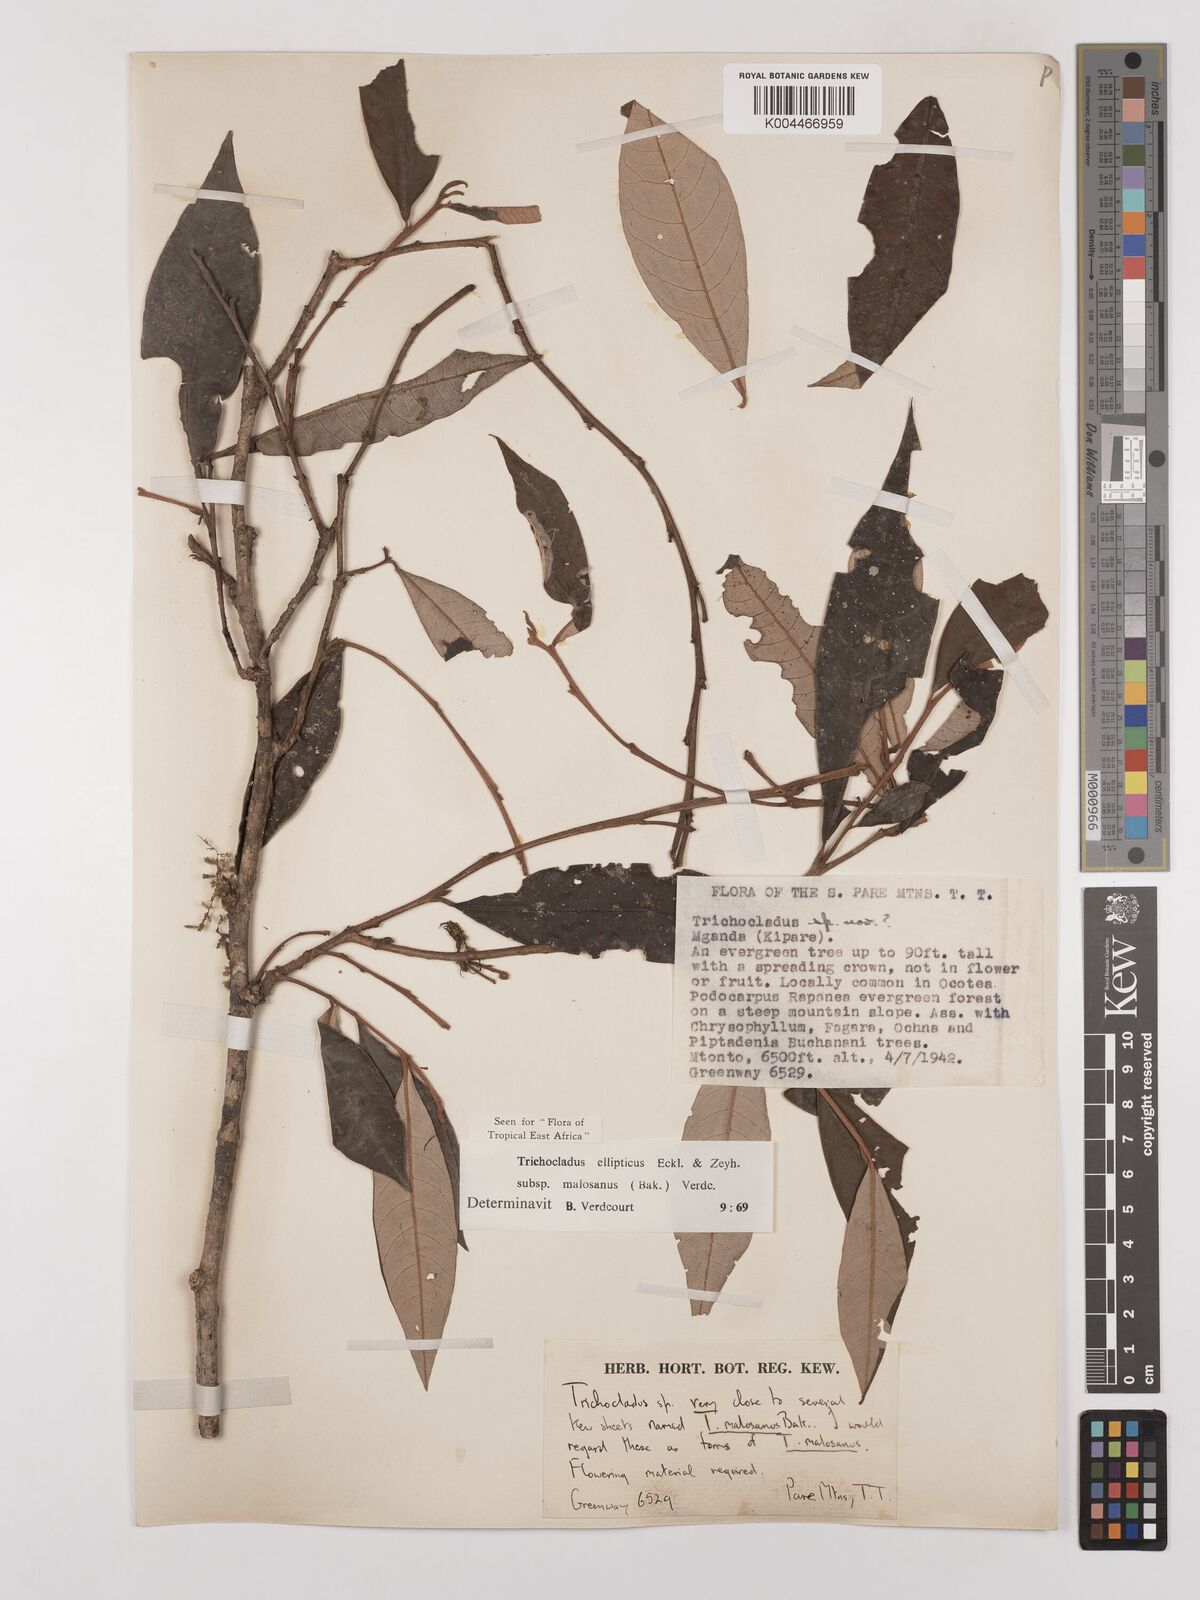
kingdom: Plantae
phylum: Tracheophyta
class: Magnoliopsida
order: Saxifragales
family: Hamamelidaceae
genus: Trichocladus
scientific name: Trichocladus ellipticus
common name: White witch-hazel
